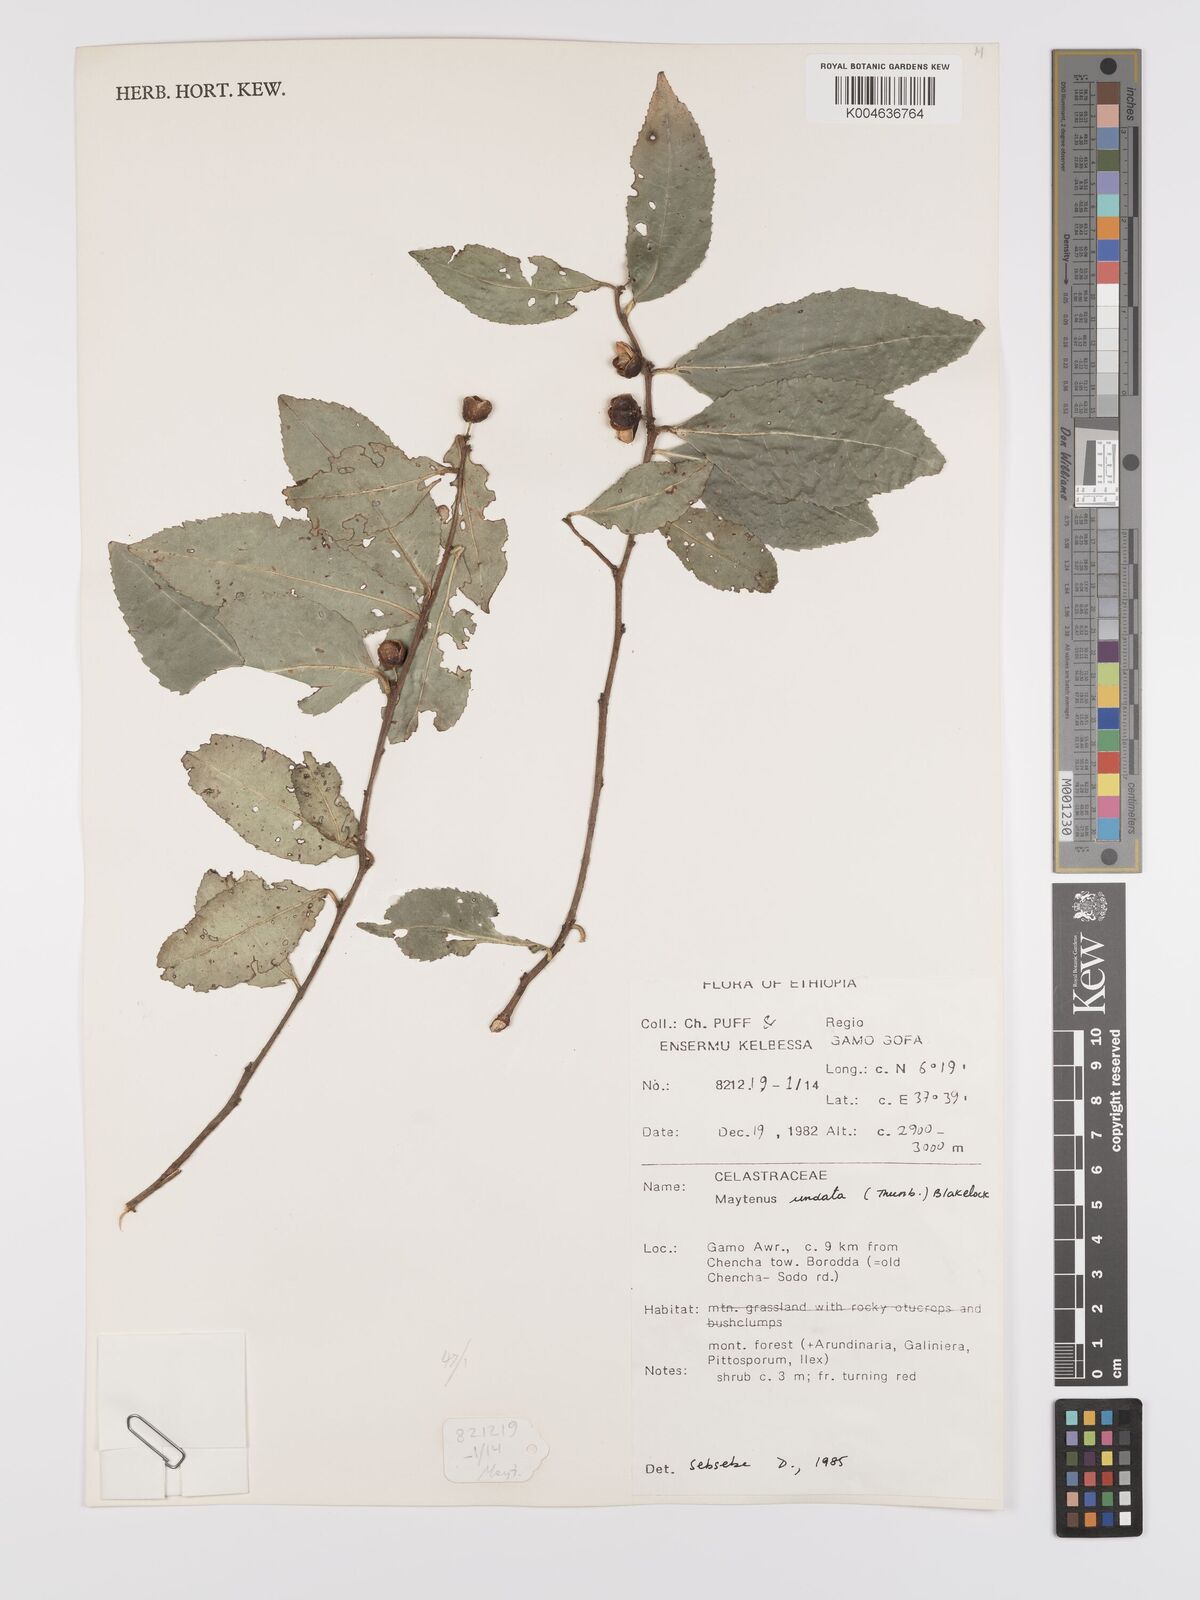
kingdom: Plantae
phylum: Tracheophyta
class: Magnoliopsida
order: Celastrales
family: Celastraceae
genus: Gymnosporia
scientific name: Gymnosporia undata
